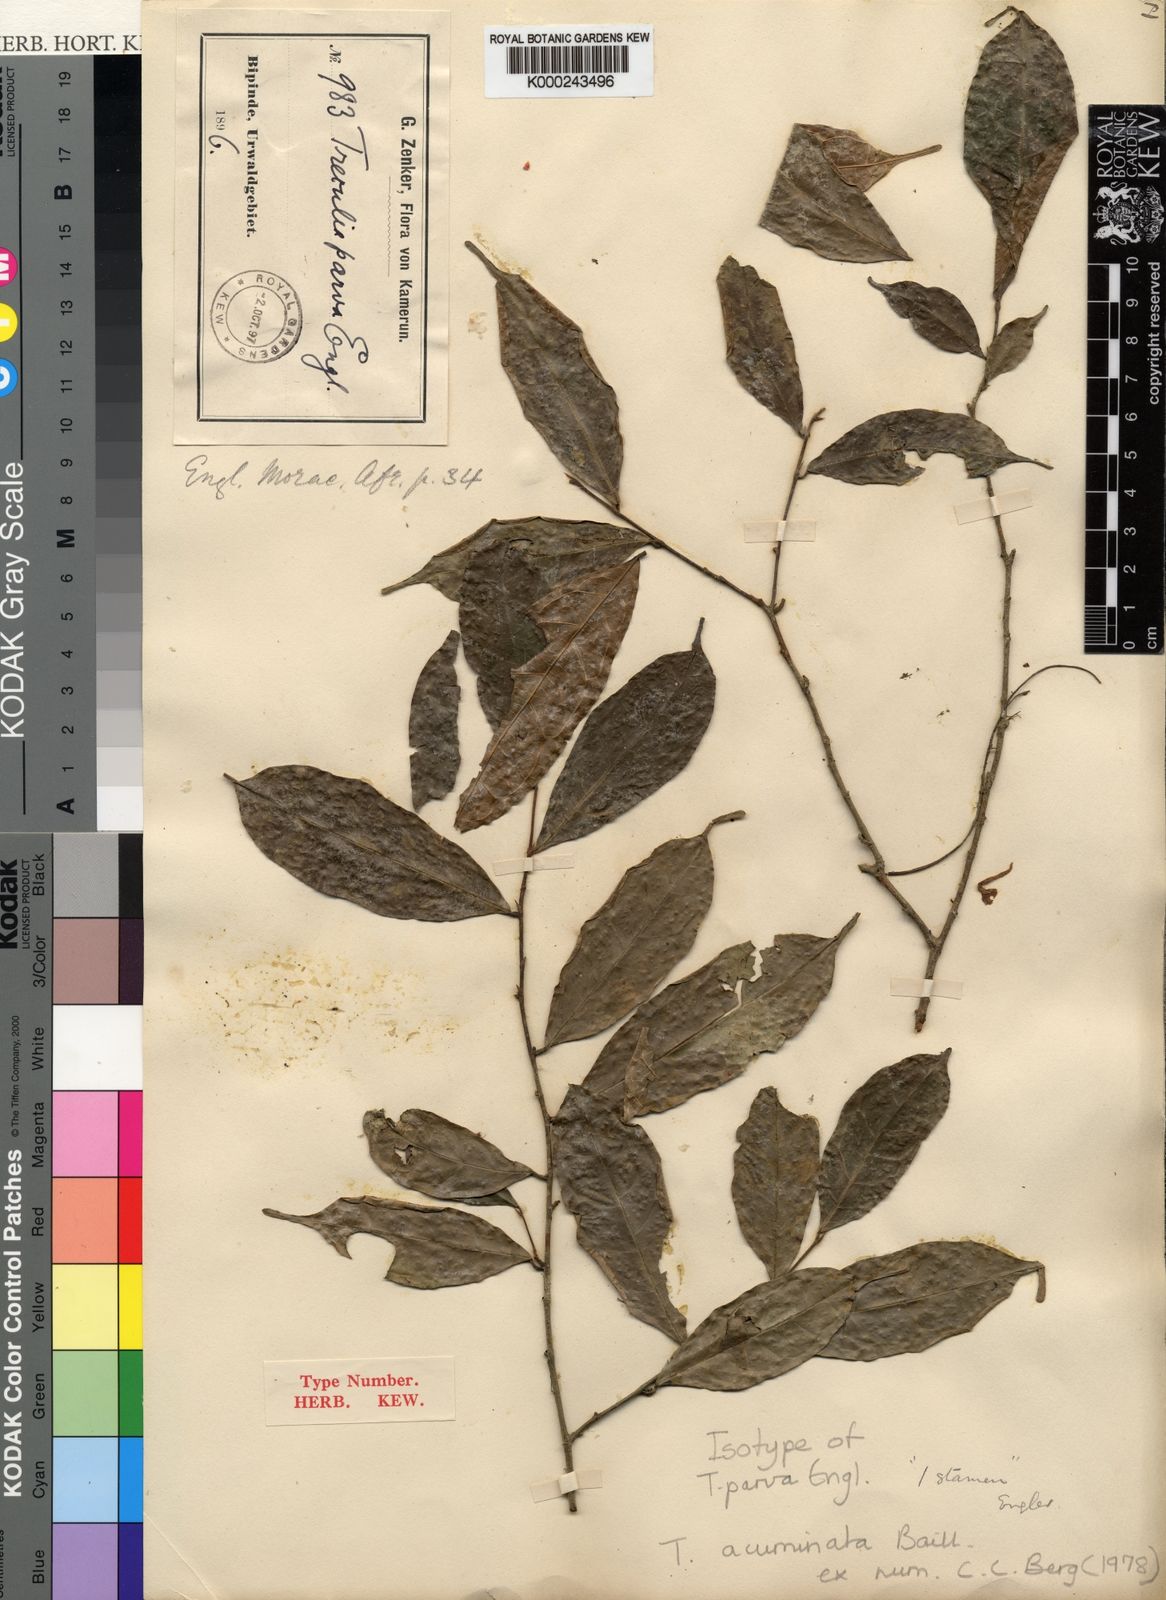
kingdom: Plantae
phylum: Tracheophyta
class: Magnoliopsida
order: Rosales
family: Moraceae
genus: Treculia
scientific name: Treculia acuminata
